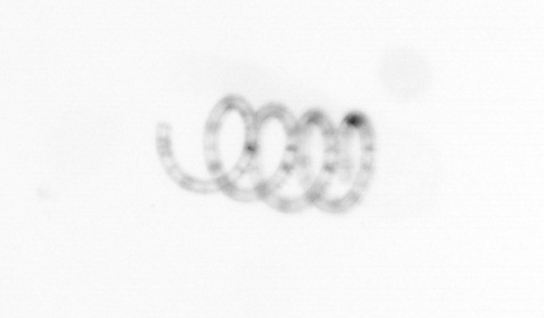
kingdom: Chromista
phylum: Ochrophyta
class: Bacillariophyceae
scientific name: Bacillariophyceae
